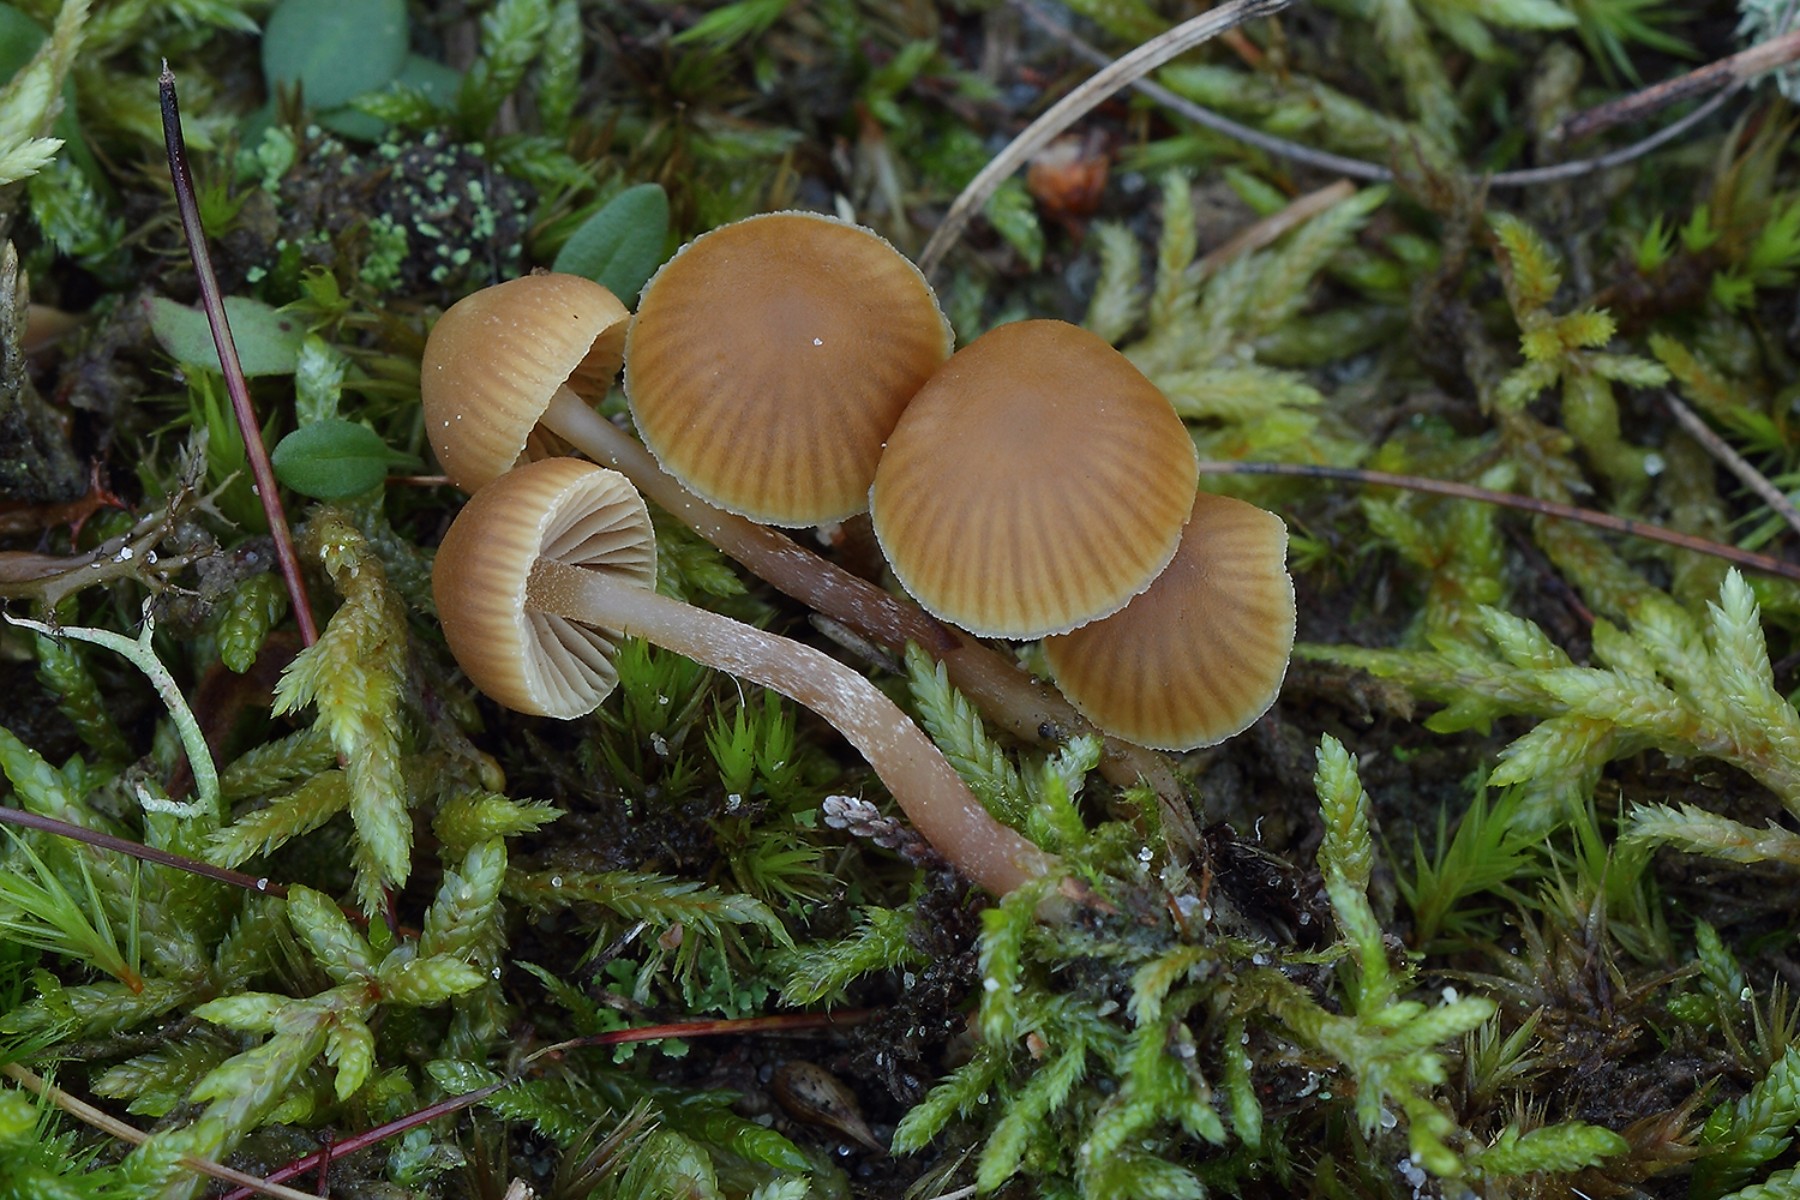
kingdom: Fungi
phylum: Basidiomycota
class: Agaricomycetes
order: Agaricales
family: Hymenogastraceae
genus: Galerina
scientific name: Galerina mniophila
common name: olivengul hjelmhat
